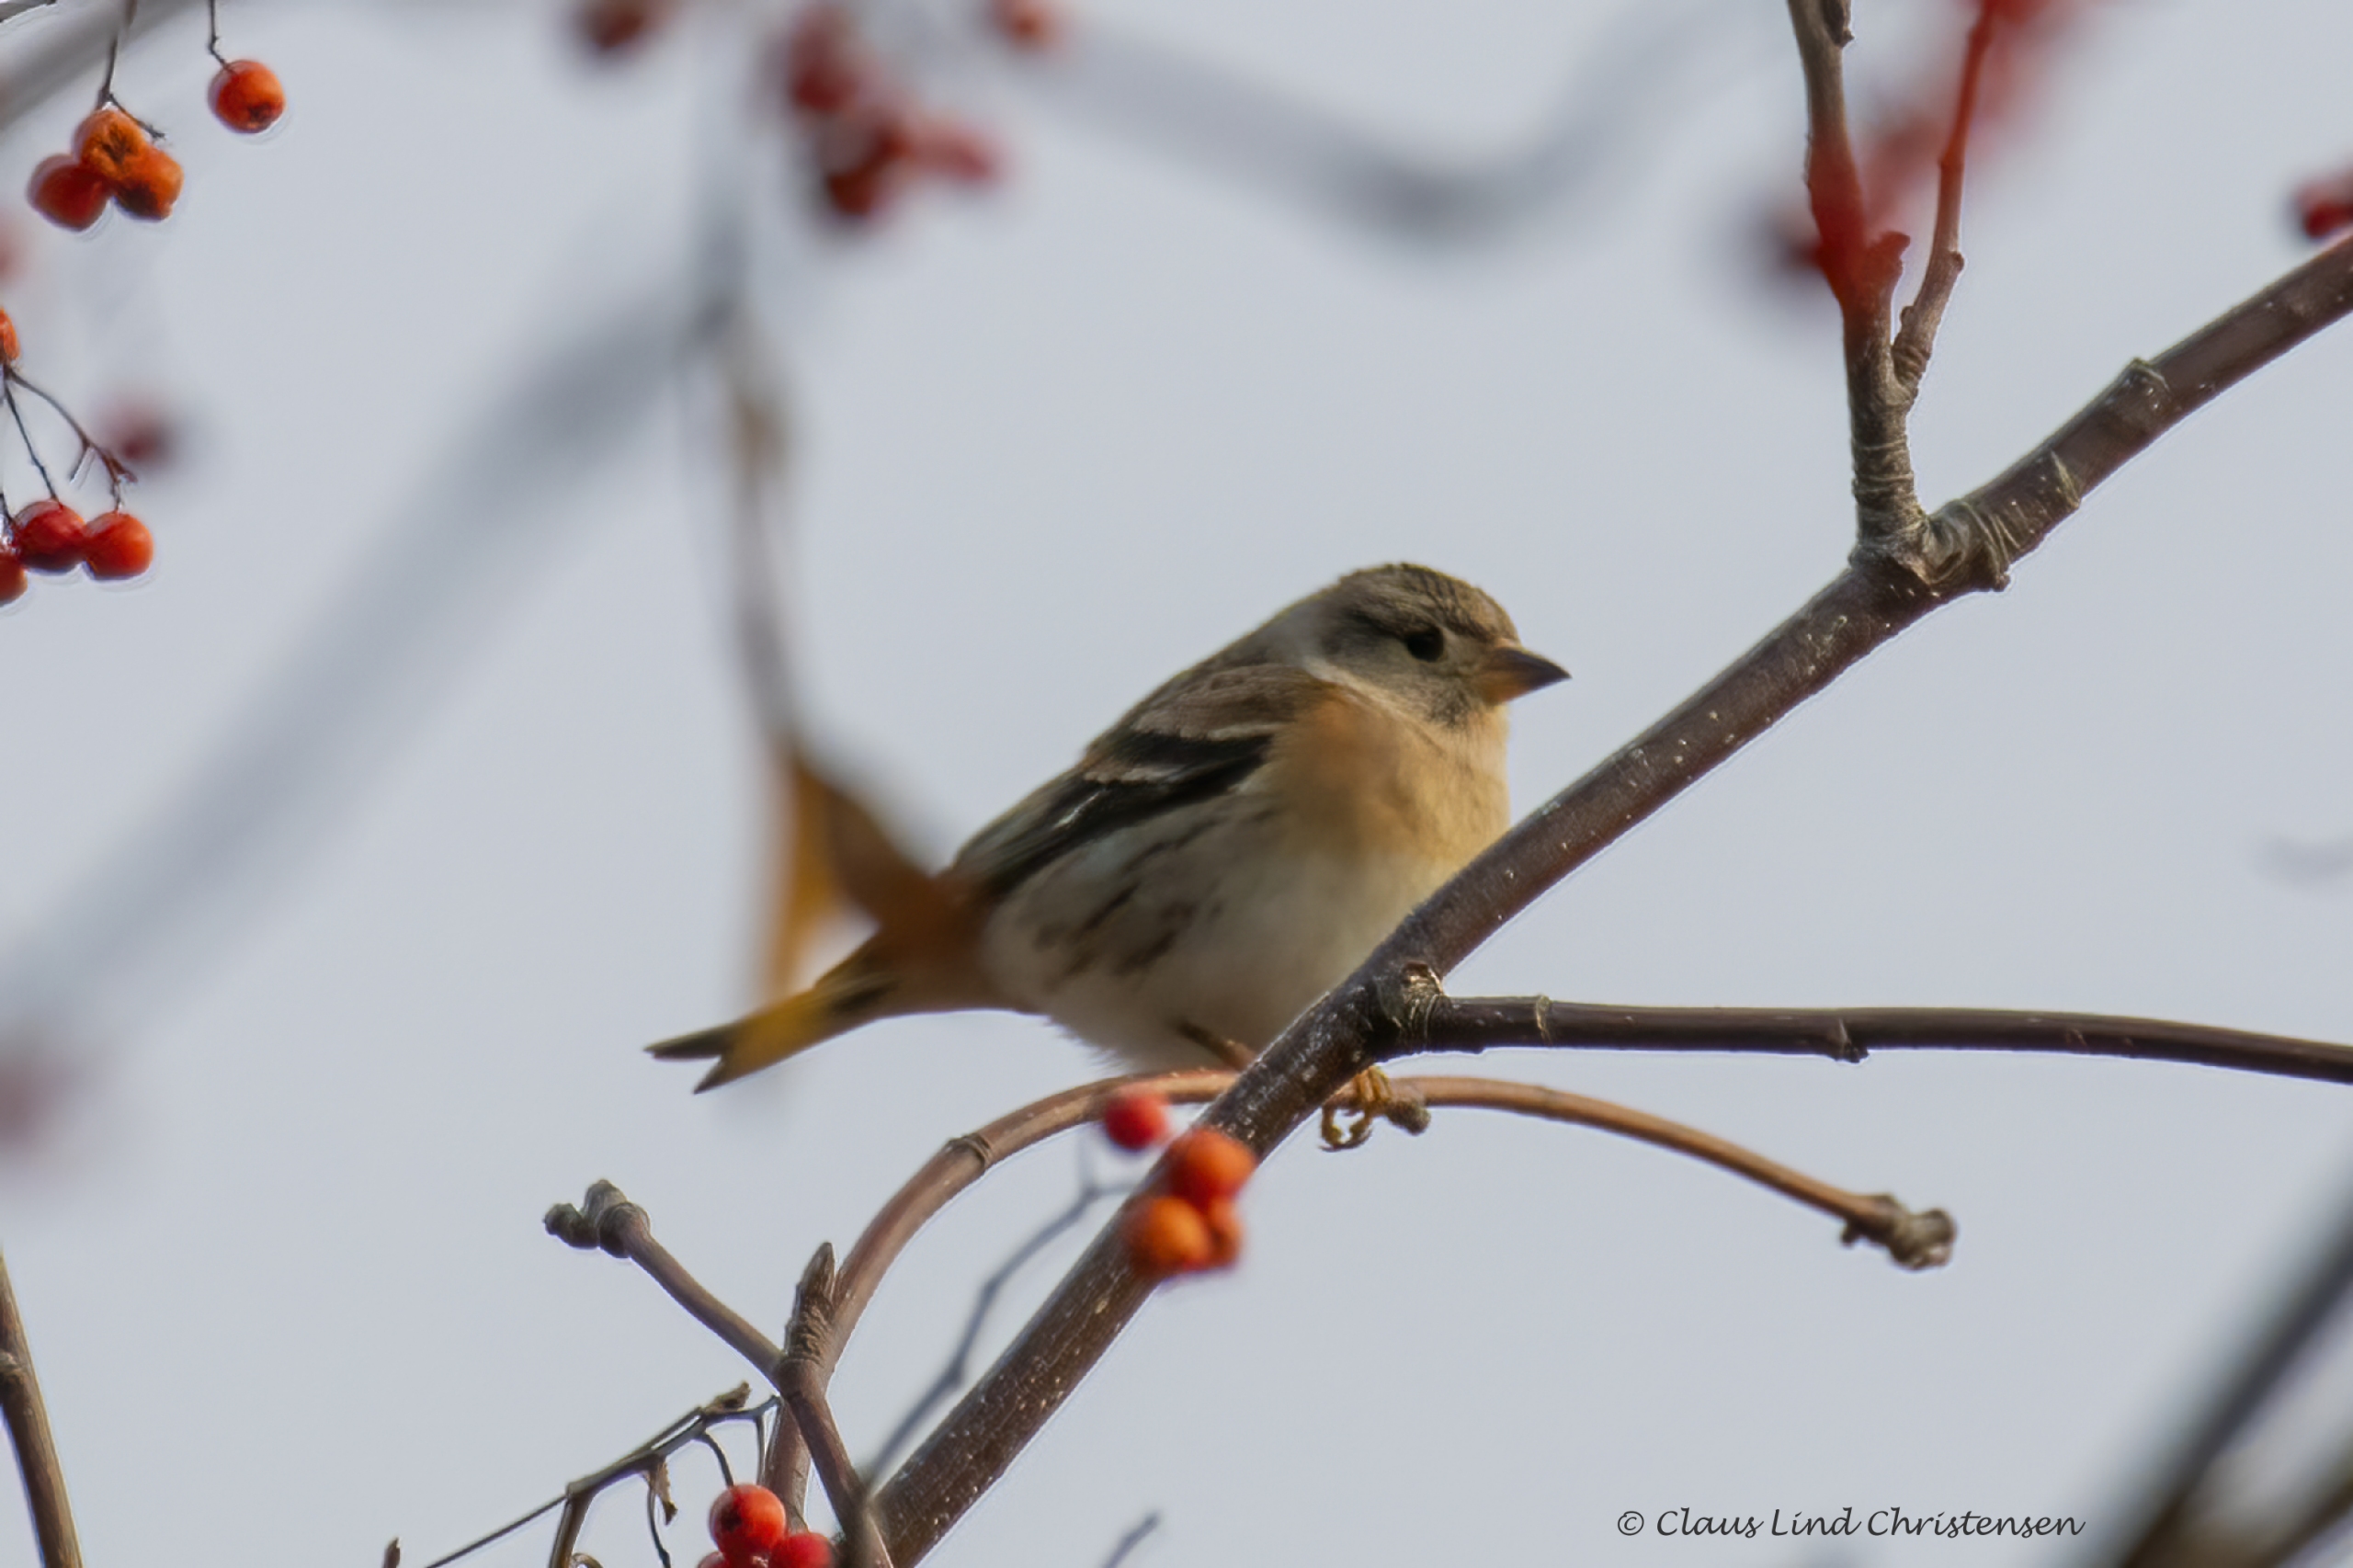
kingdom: Animalia
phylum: Chordata
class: Aves
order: Passeriformes
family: Fringillidae
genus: Fringilla
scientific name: Fringilla montifringilla
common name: Kvækerfinke
